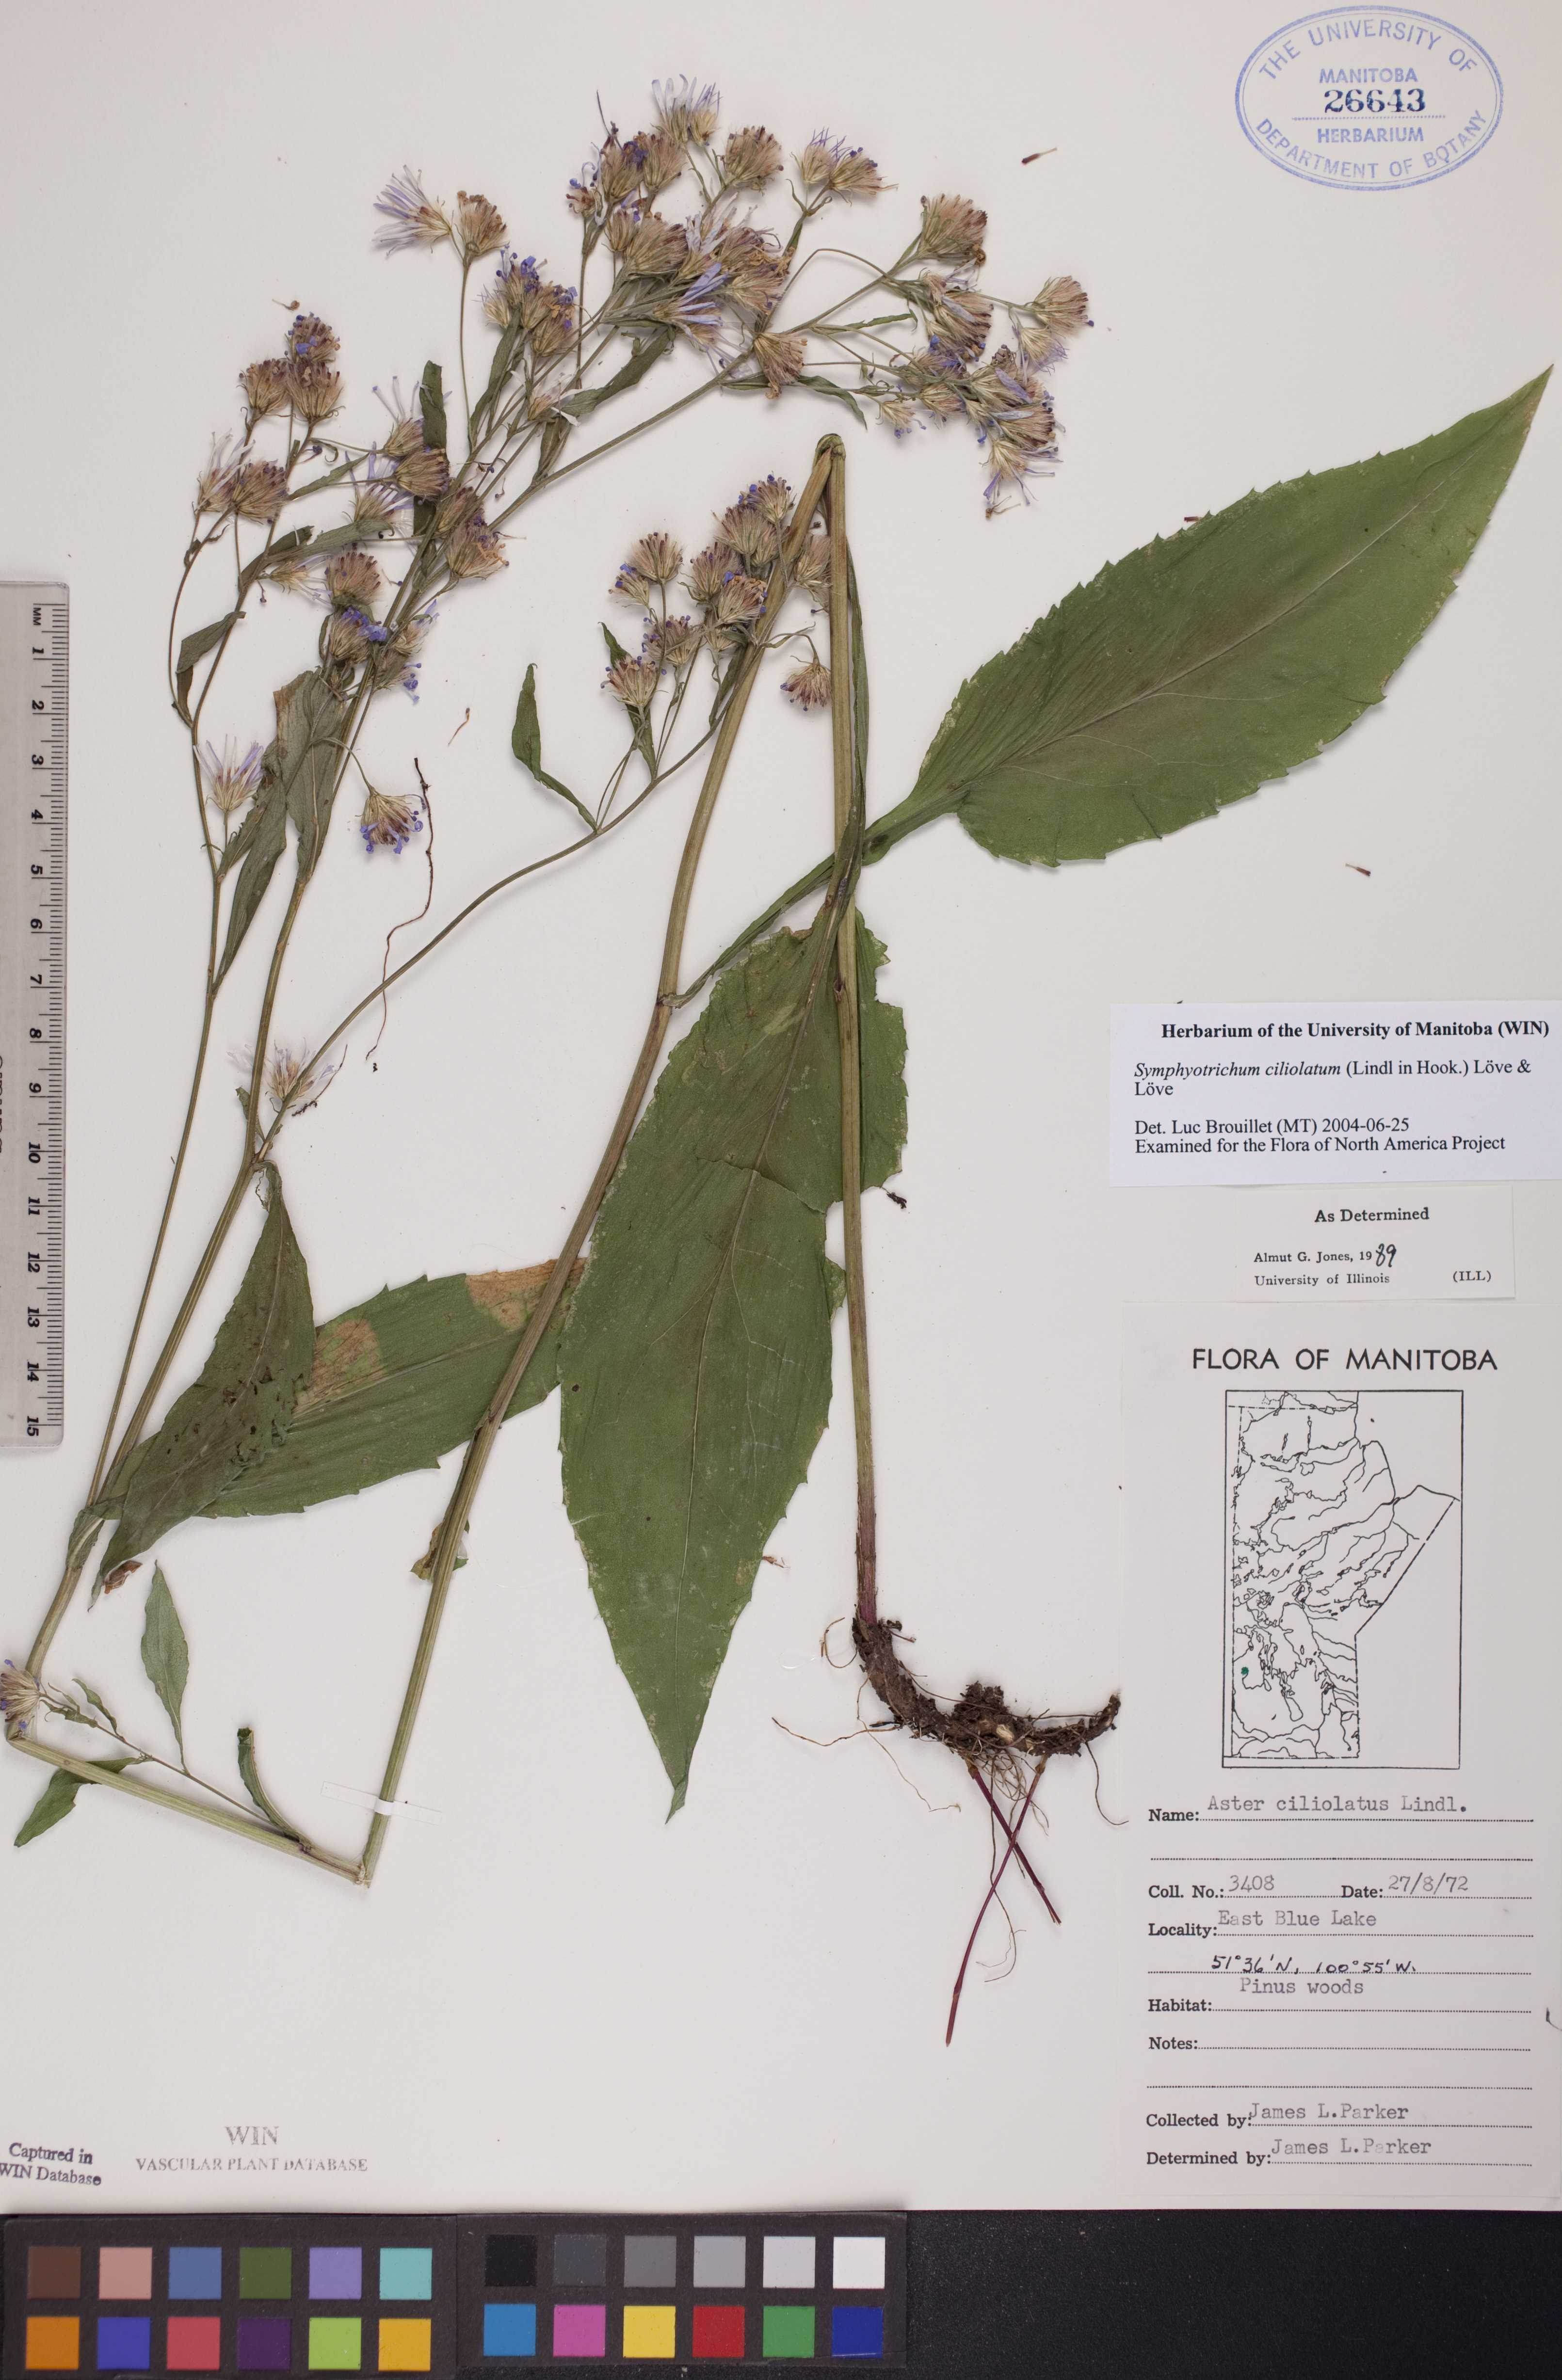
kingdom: Plantae
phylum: Tracheophyta
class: Magnoliopsida
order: Asterales
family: Asteraceae
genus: Symphyotrichum
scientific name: Symphyotrichum ciliolatum
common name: Fringed blue aster
